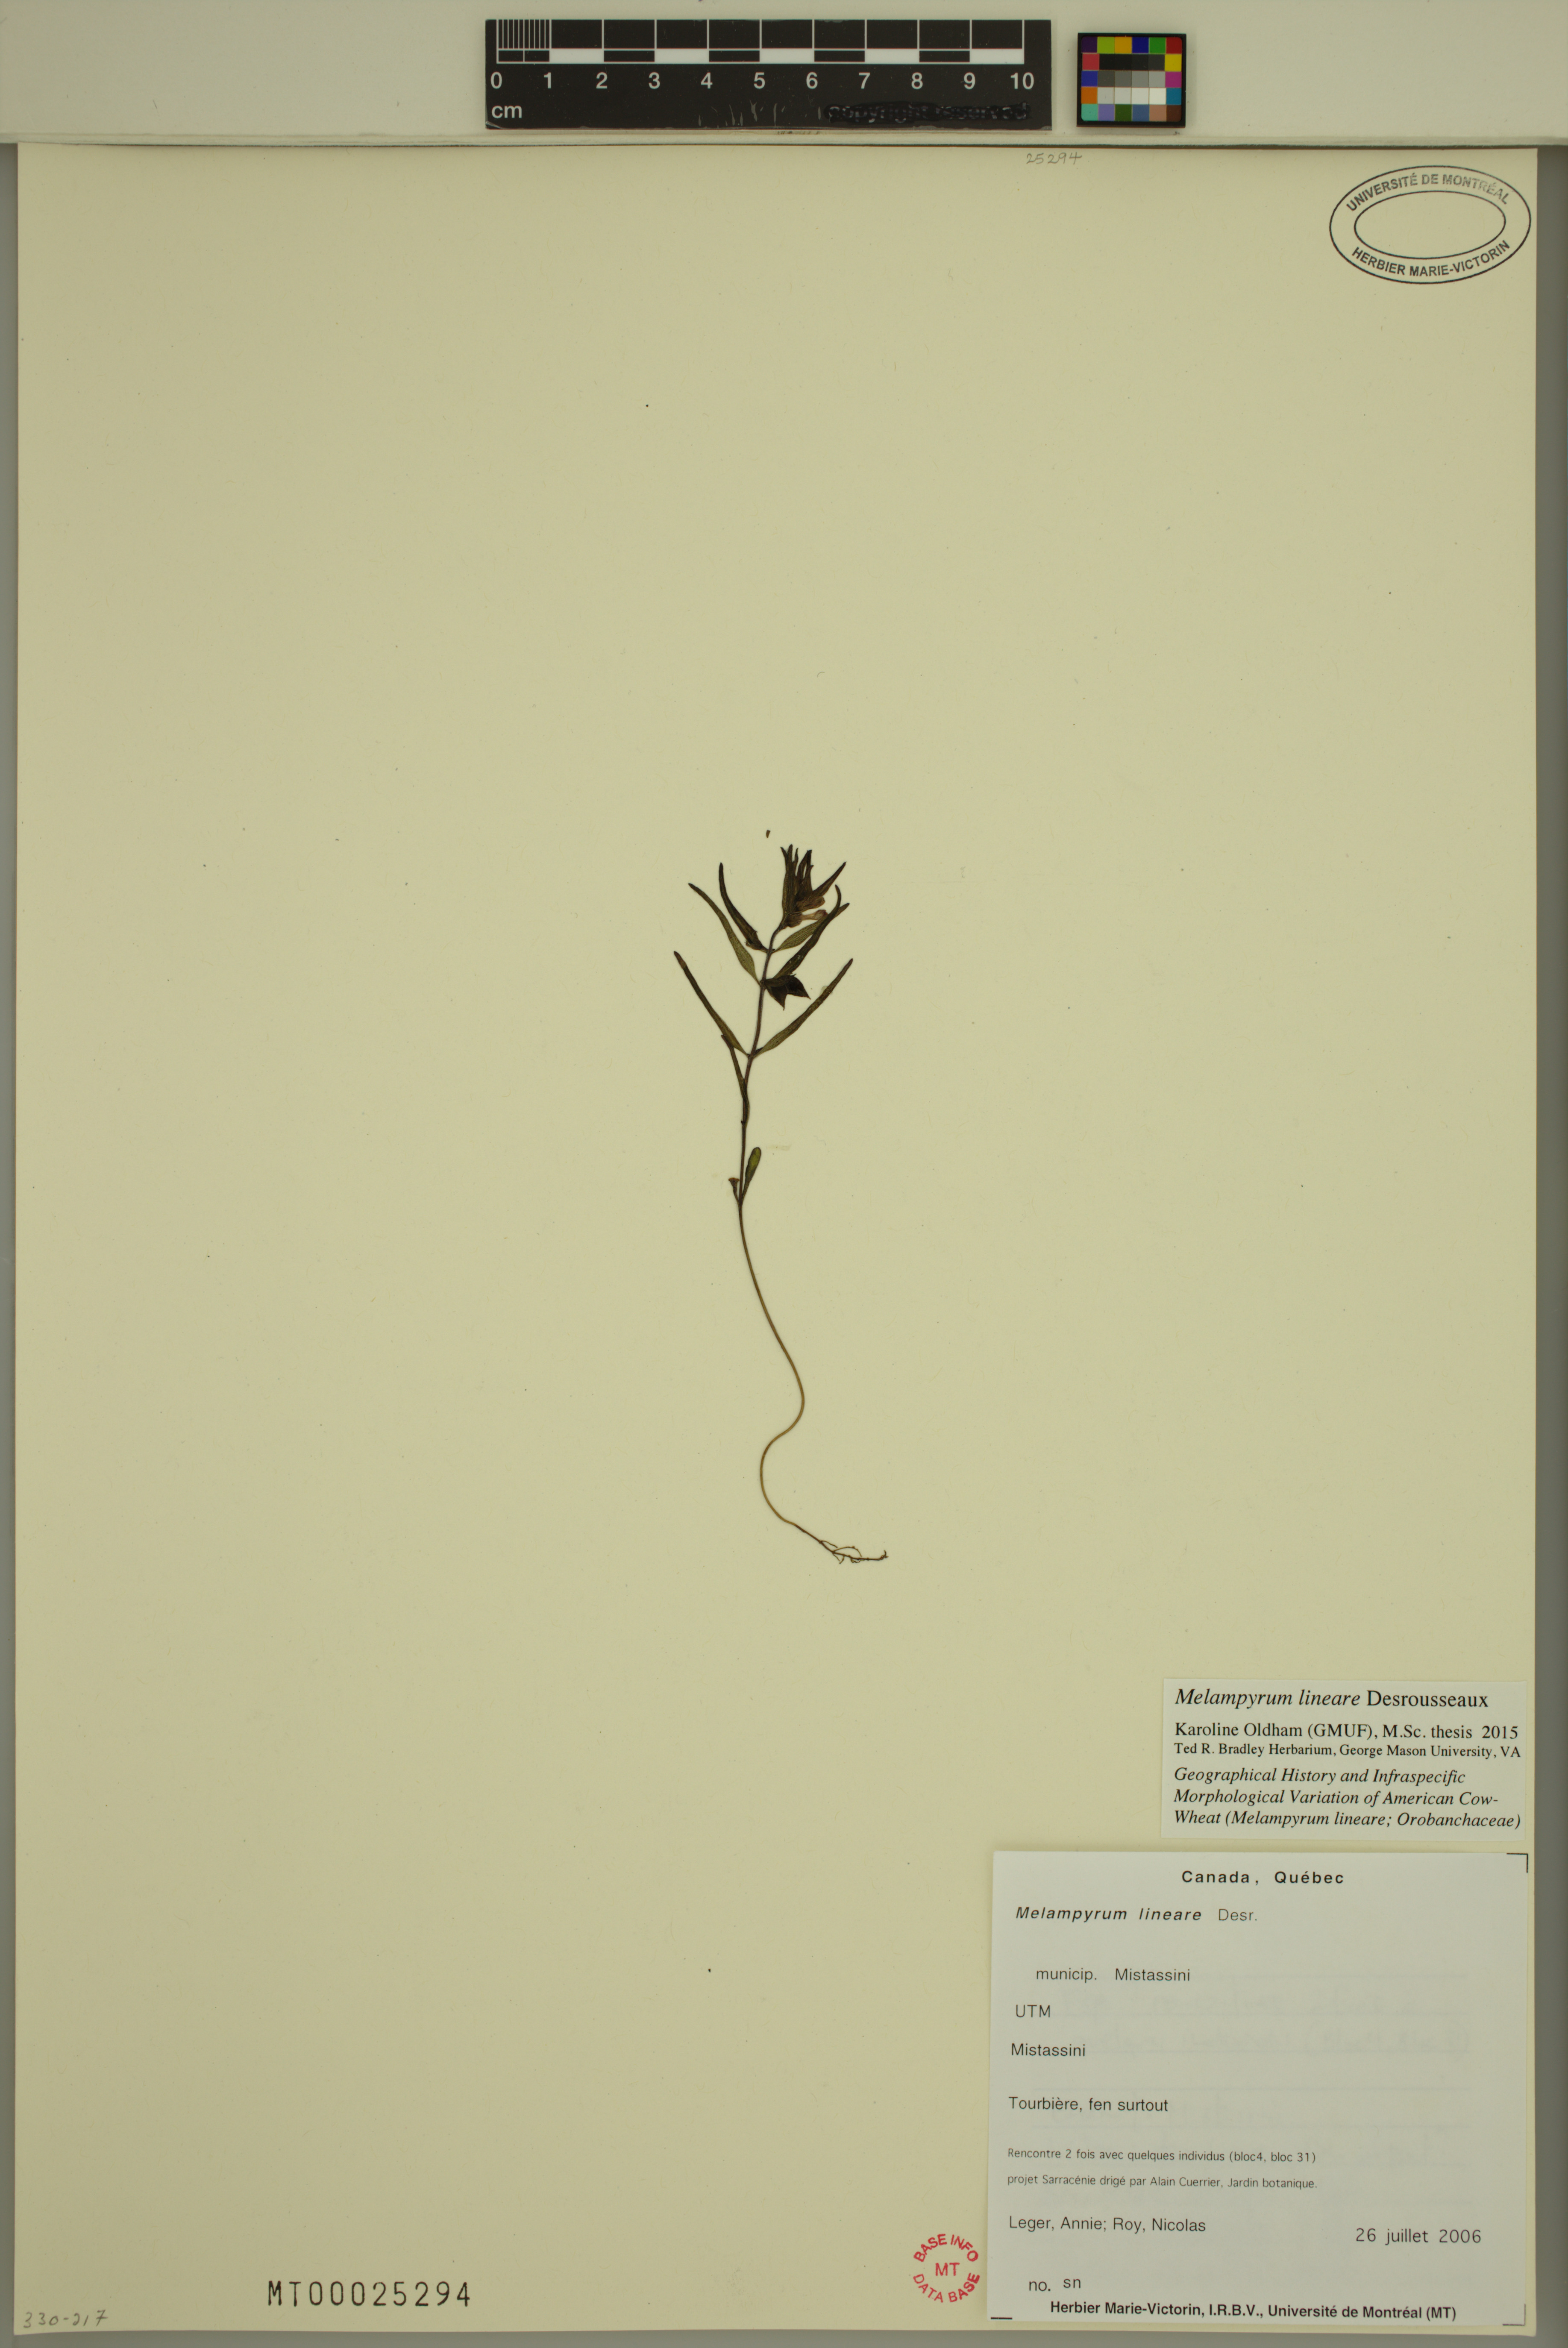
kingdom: Plantae
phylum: Tracheophyta
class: Magnoliopsida
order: Lamiales
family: Orobanchaceae
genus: Melampyrum
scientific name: Melampyrum lineare
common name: American cow-wheat
